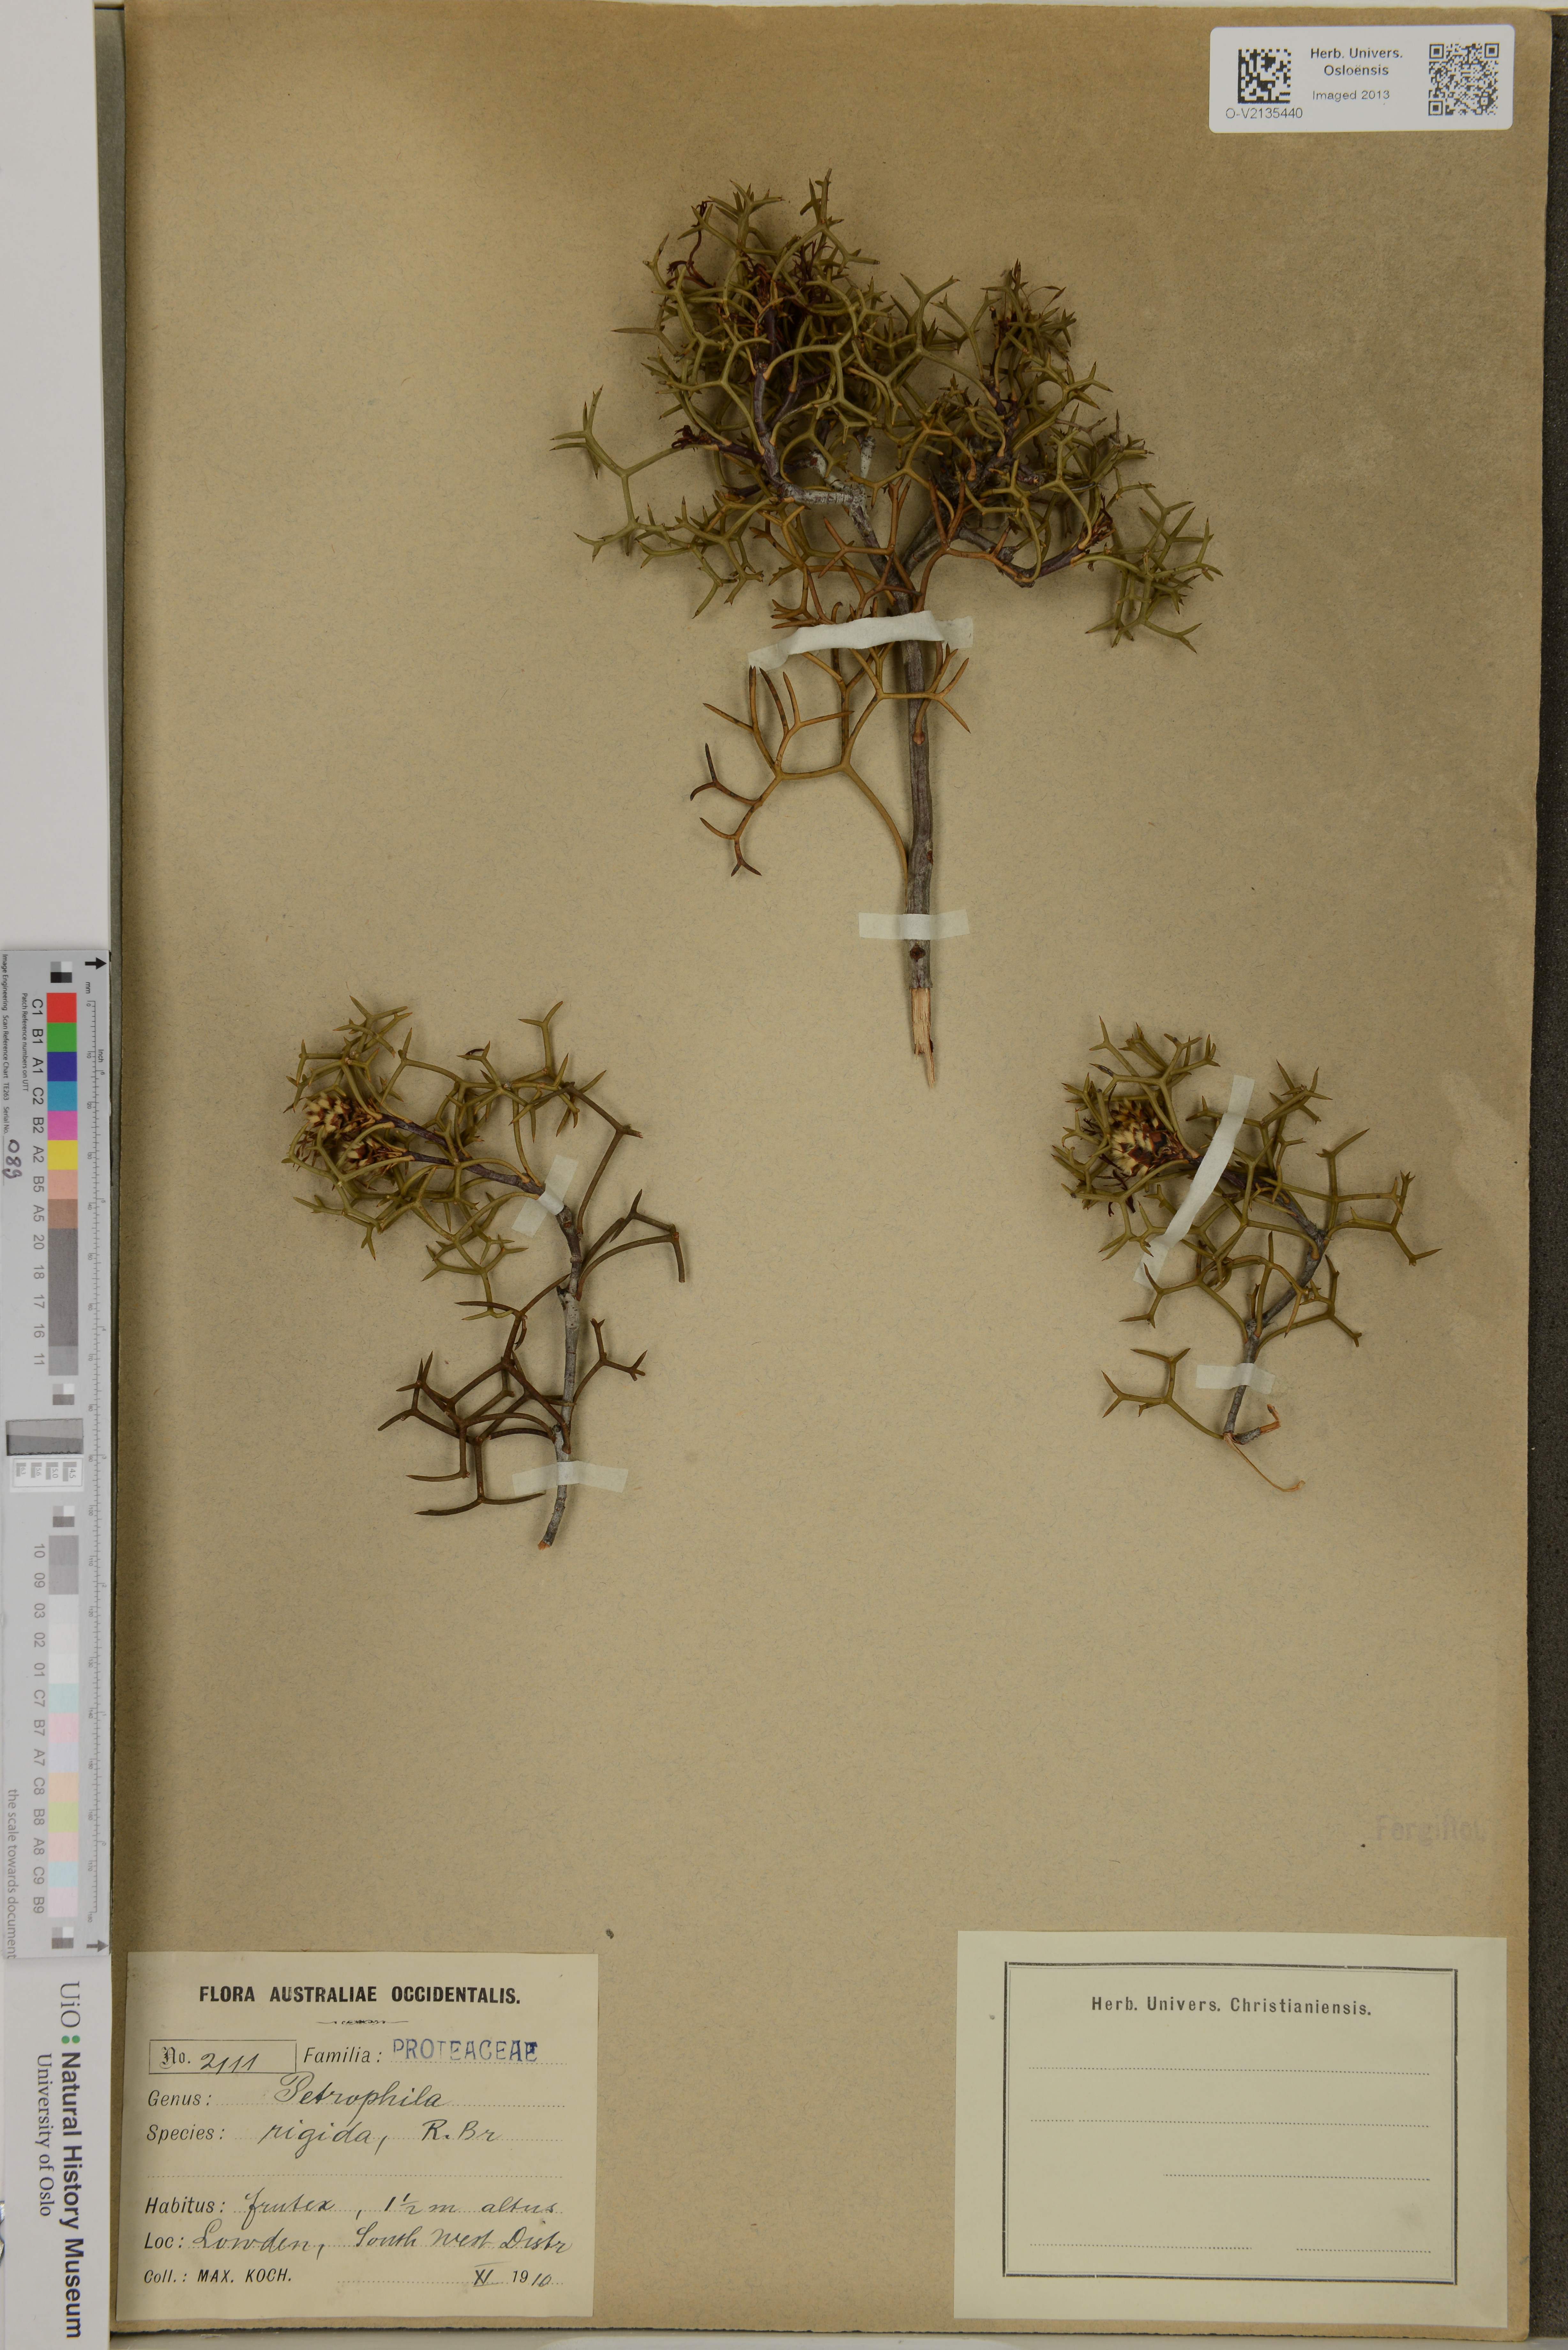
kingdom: Plantae
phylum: Tracheophyta
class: Magnoliopsida
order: Proteales
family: Proteaceae
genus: Petrophile
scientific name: Petrophile rigida
